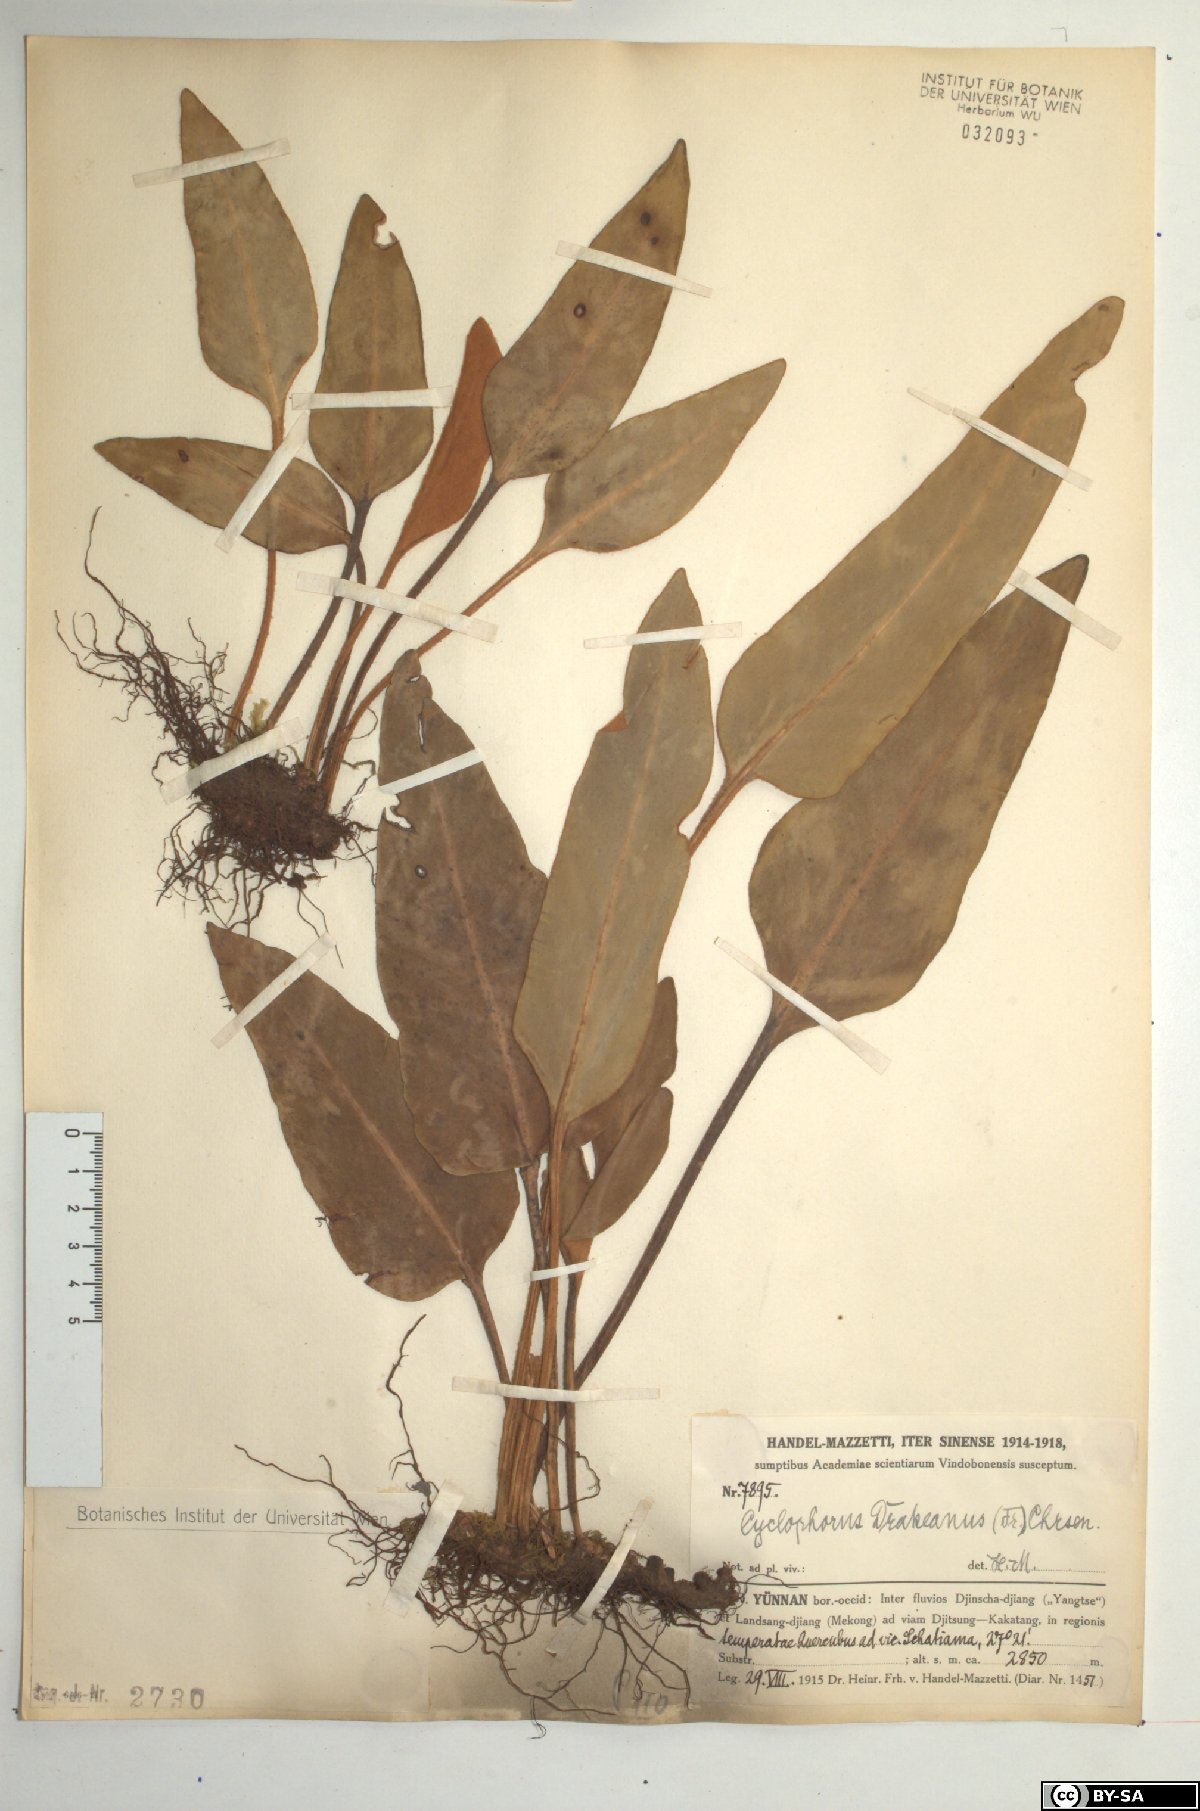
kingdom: Plantae
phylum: Tracheophyta
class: Polypodiopsida
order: Polypodiales
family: Polypodiaceae
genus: Pyrrosia
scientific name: Pyrrosia drakeana
